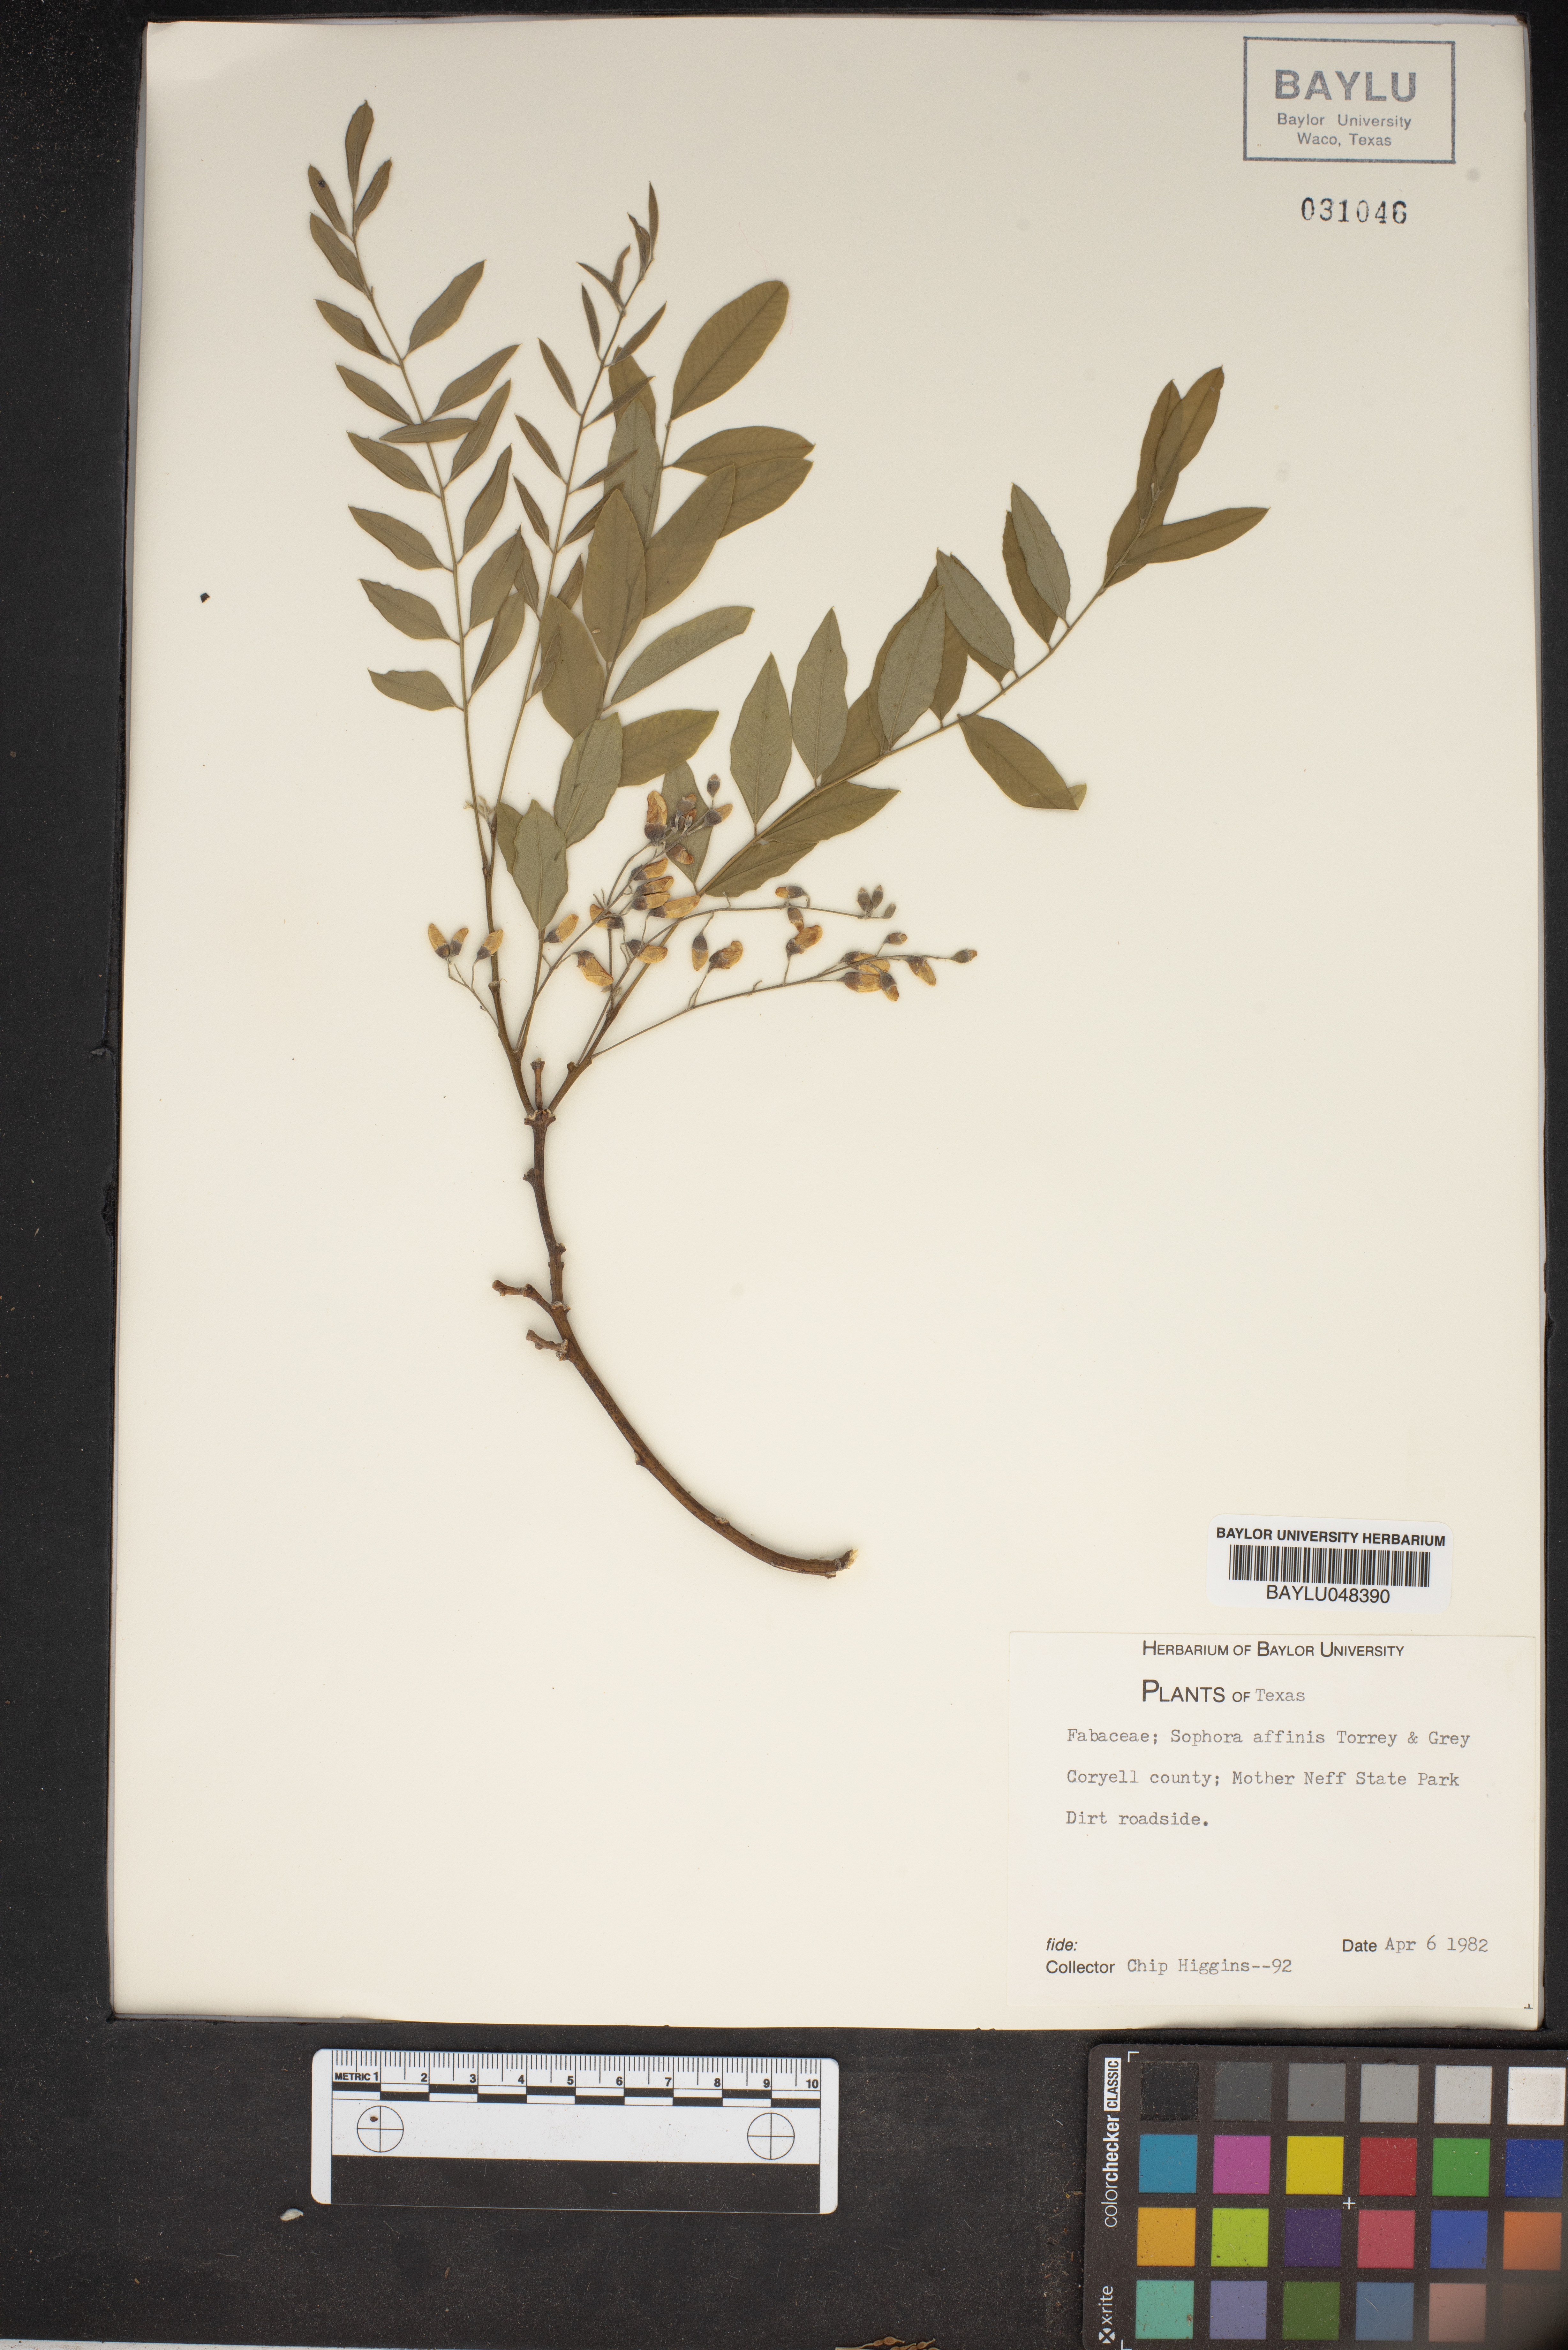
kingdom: Plantae
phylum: Tracheophyta
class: Magnoliopsida
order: Fabales
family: Fabaceae
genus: Styphnolobium
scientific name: Styphnolobium affine
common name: Texas sophora
